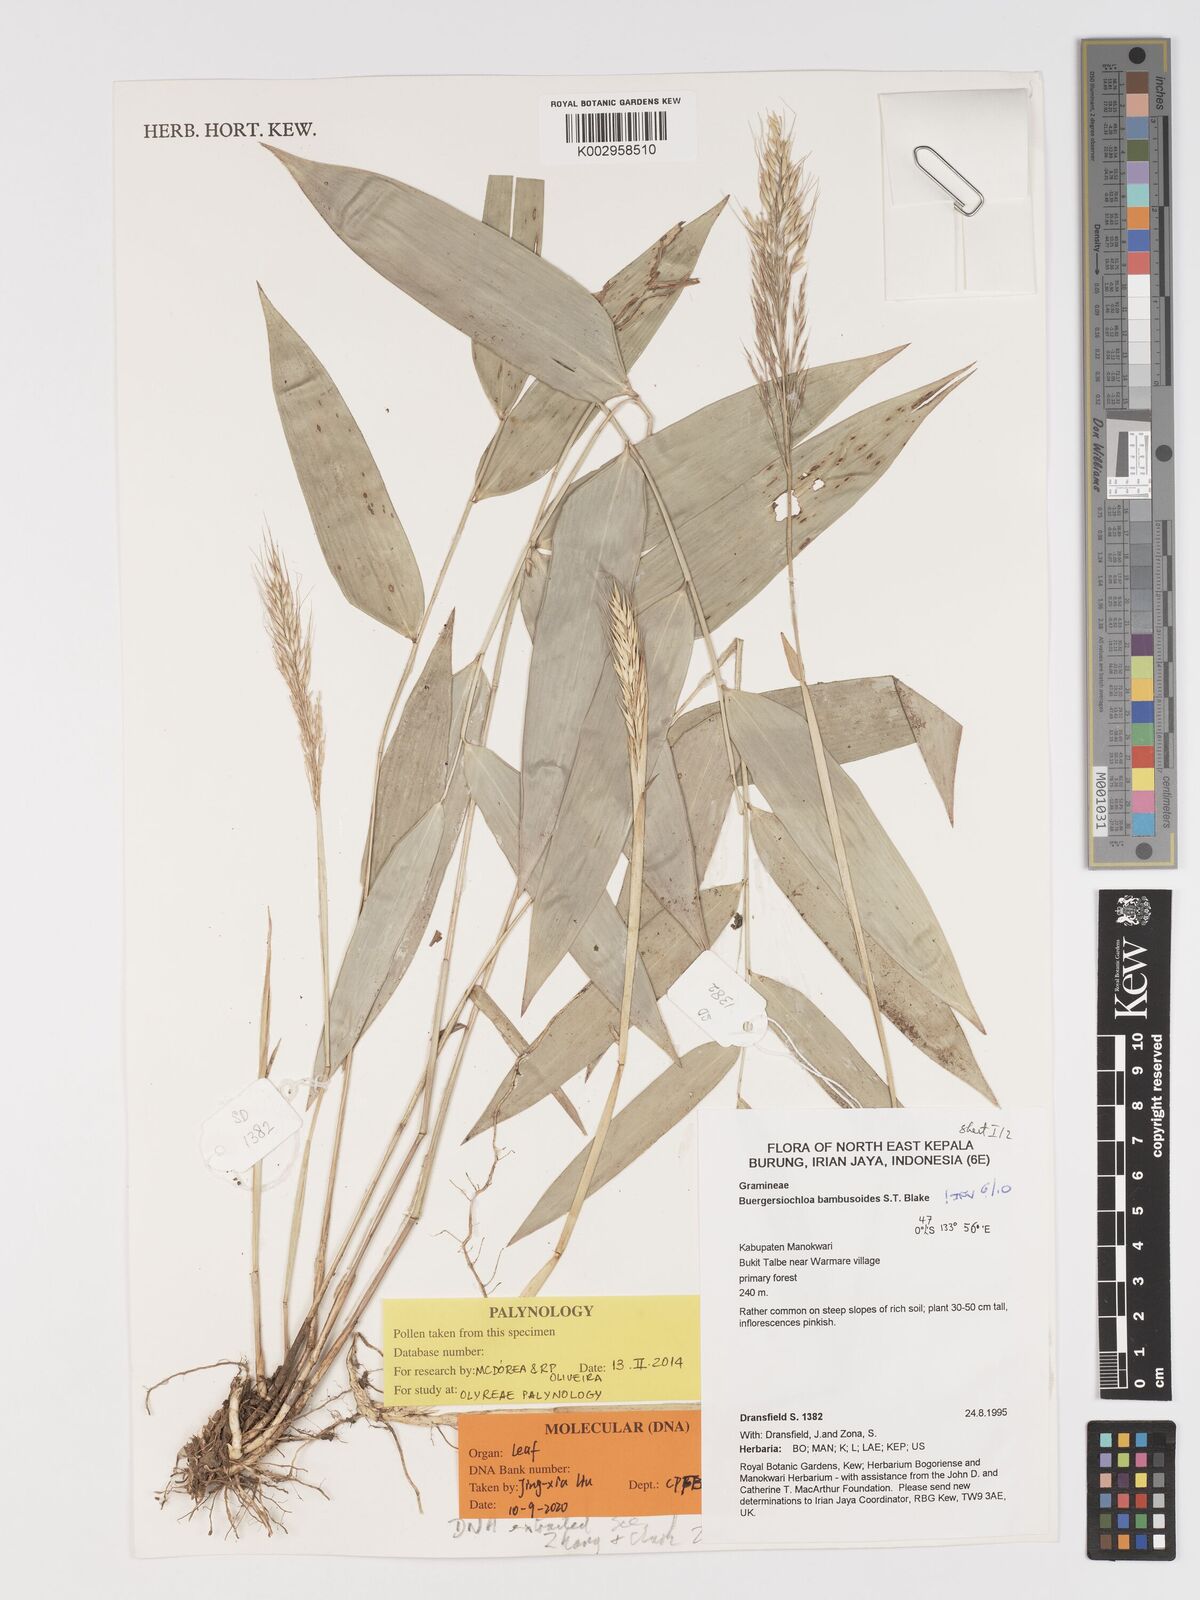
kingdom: Plantae
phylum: Tracheophyta
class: Liliopsida
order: Poales
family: Poaceae
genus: Buergersiochloa
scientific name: Buergersiochloa bambusoides
